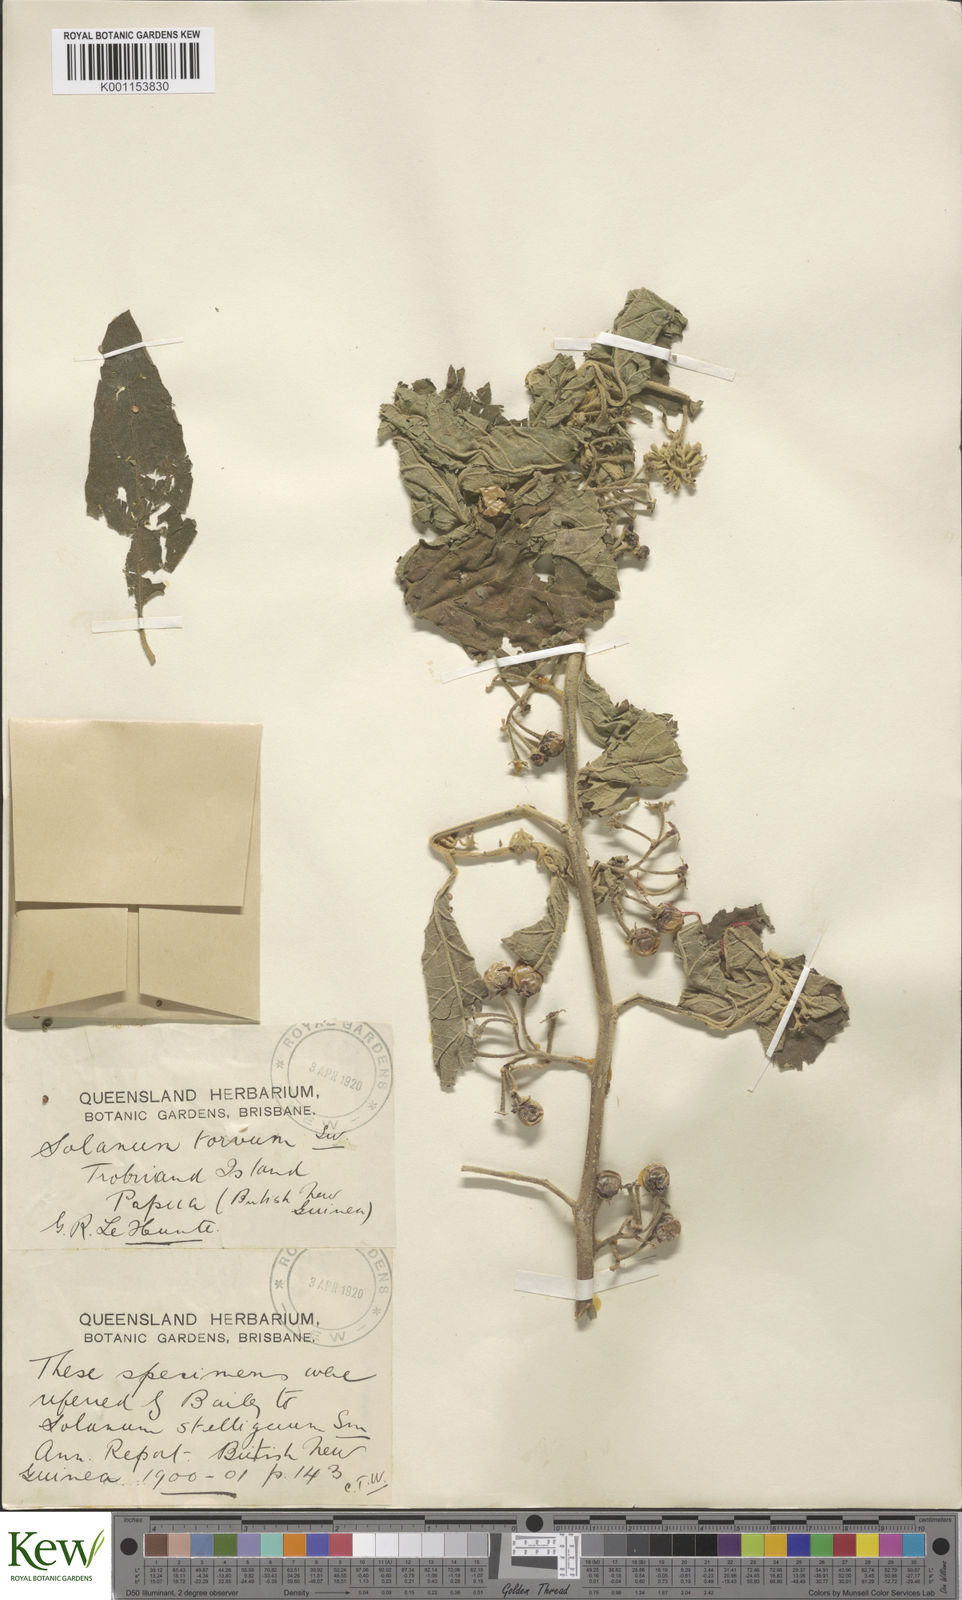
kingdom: Plantae
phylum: Tracheophyta
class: Magnoliopsida
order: Solanales
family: Solanaceae
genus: Solanum
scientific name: Solanum
